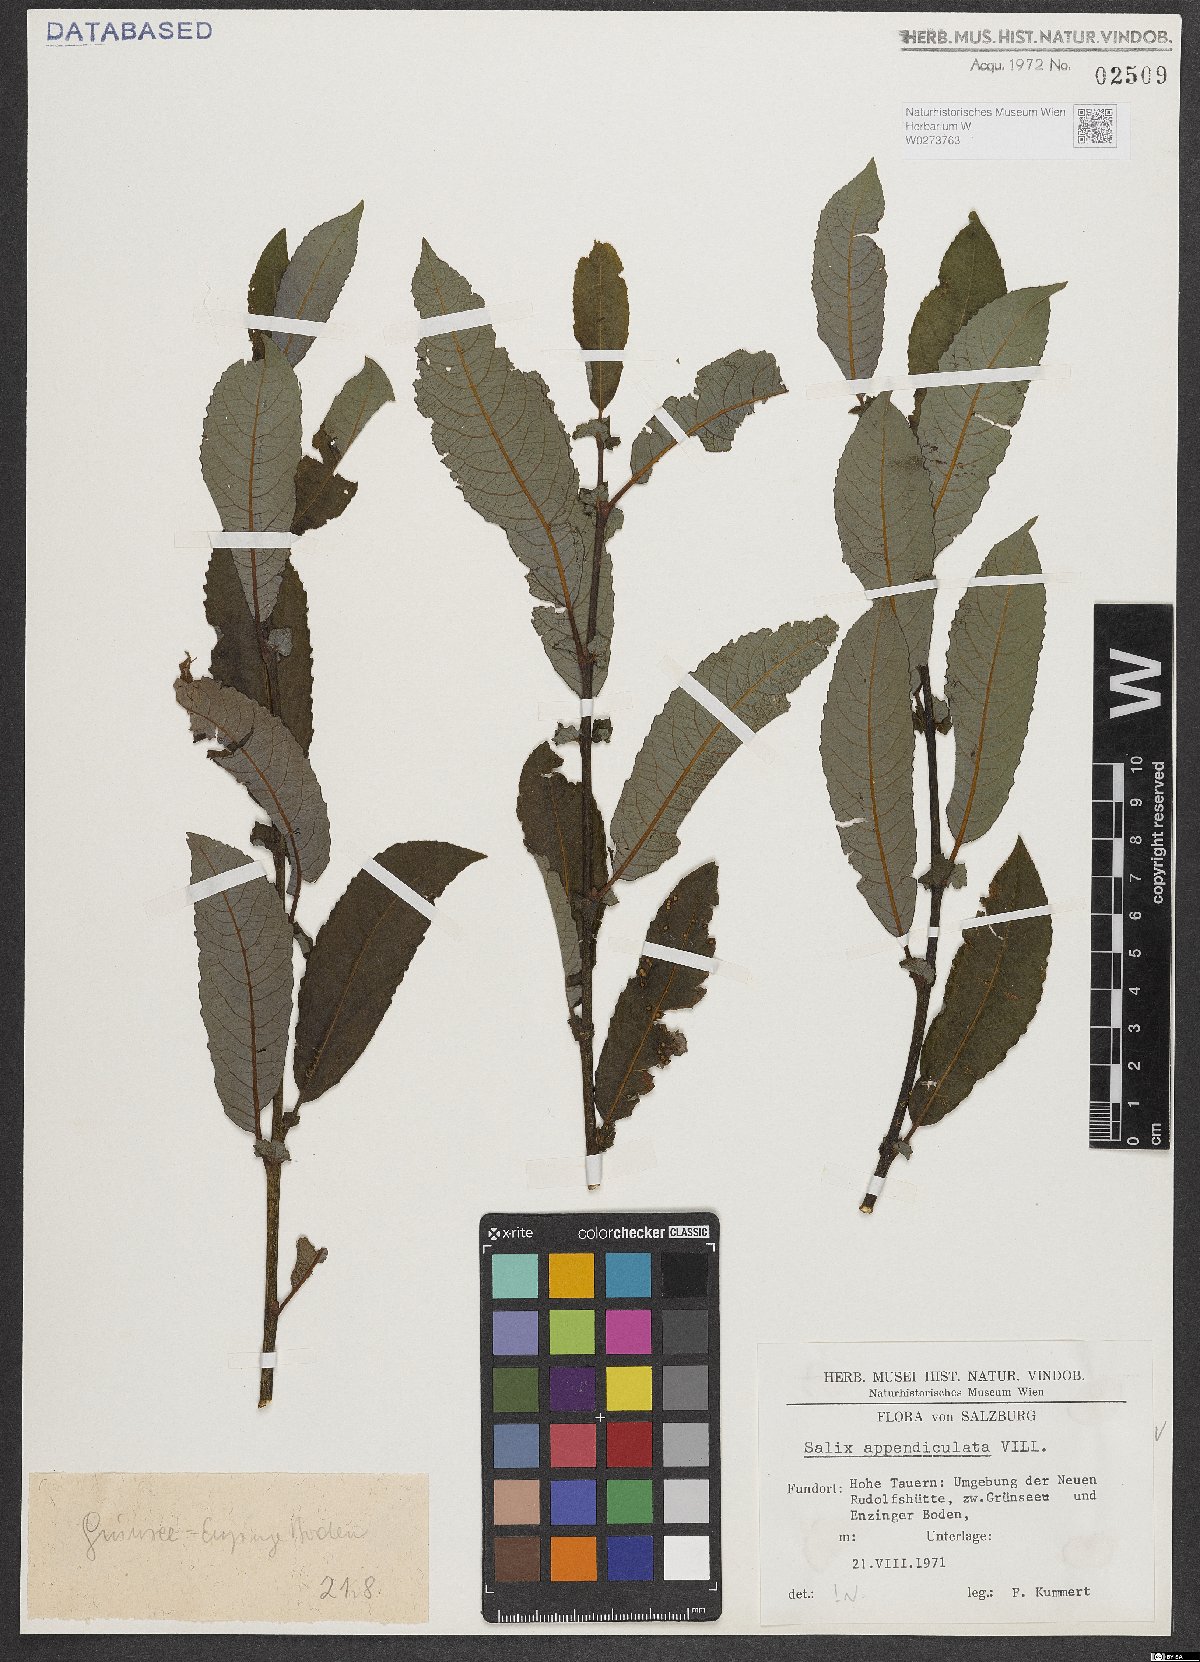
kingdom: Plantae
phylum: Tracheophyta
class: Magnoliopsida
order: Malpighiales
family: Salicaceae
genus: Salix
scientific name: Salix appendiculata
